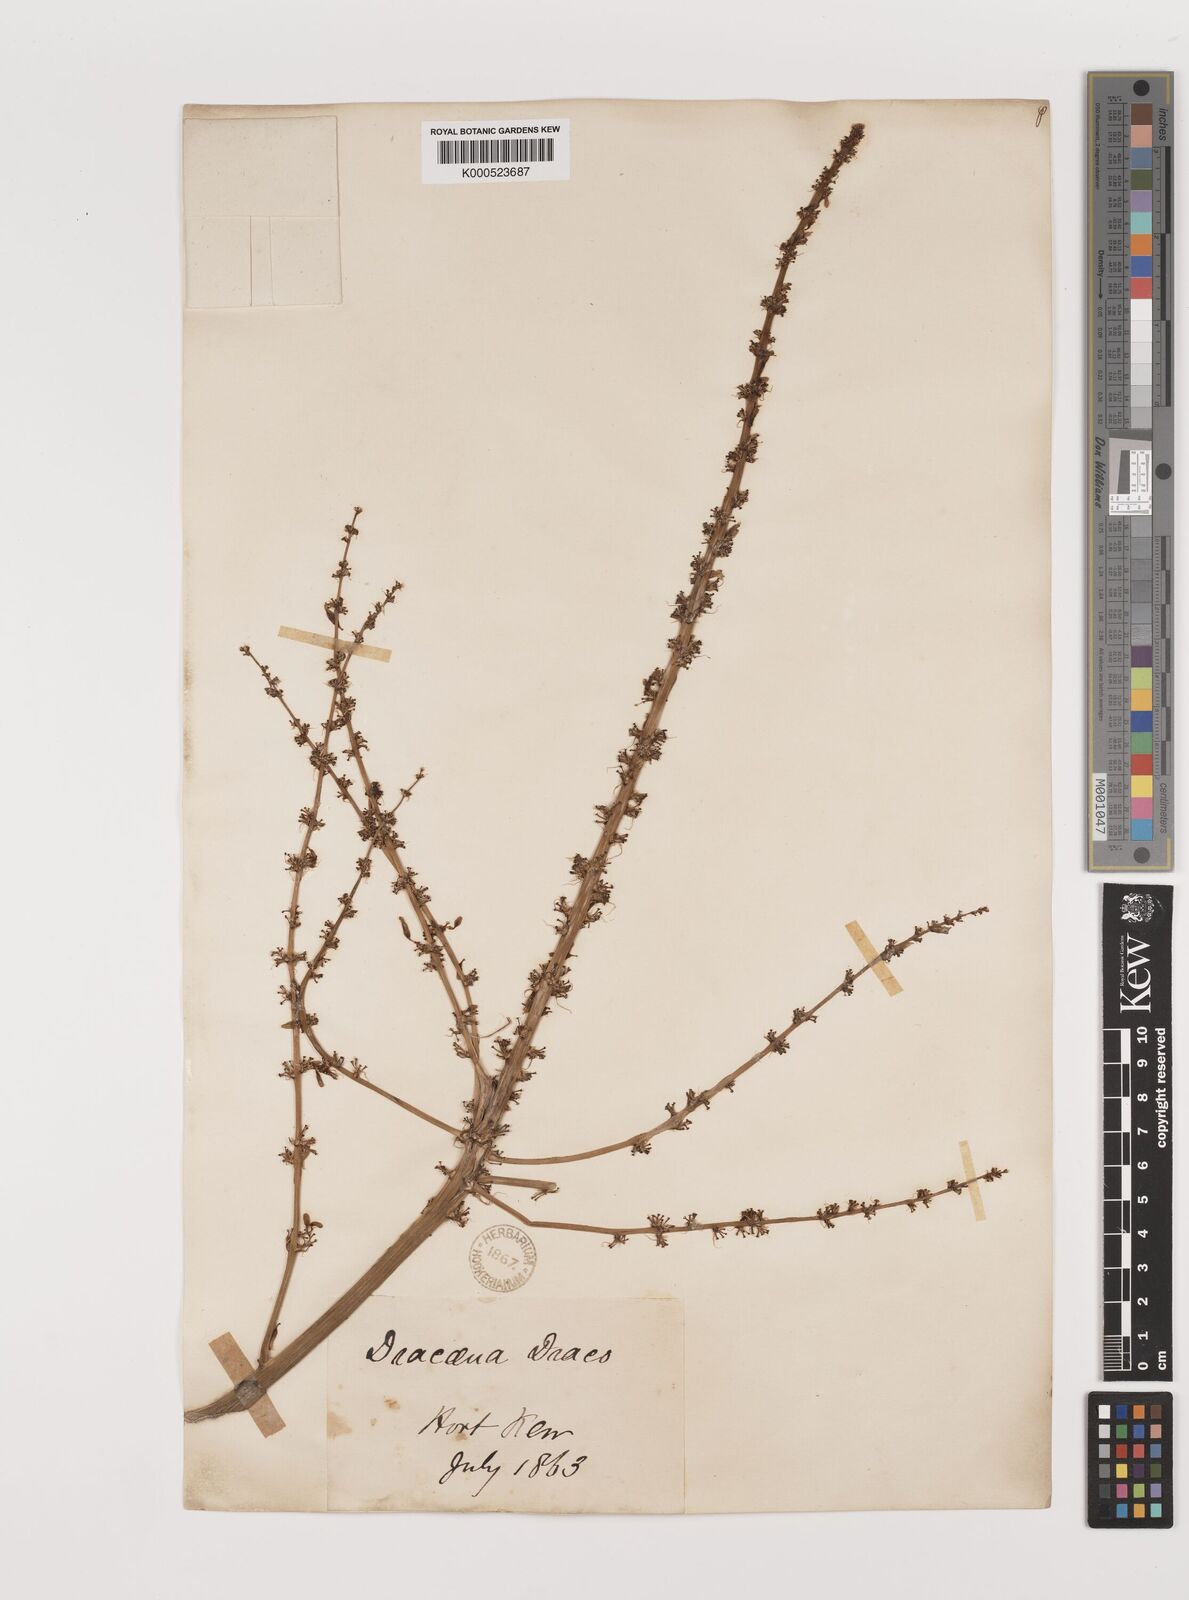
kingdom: Plantae
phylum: Tracheophyta
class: Liliopsida
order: Asparagales
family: Asparagaceae
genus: Dracaena
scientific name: Dracaena draco
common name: Canary island dragon tree
